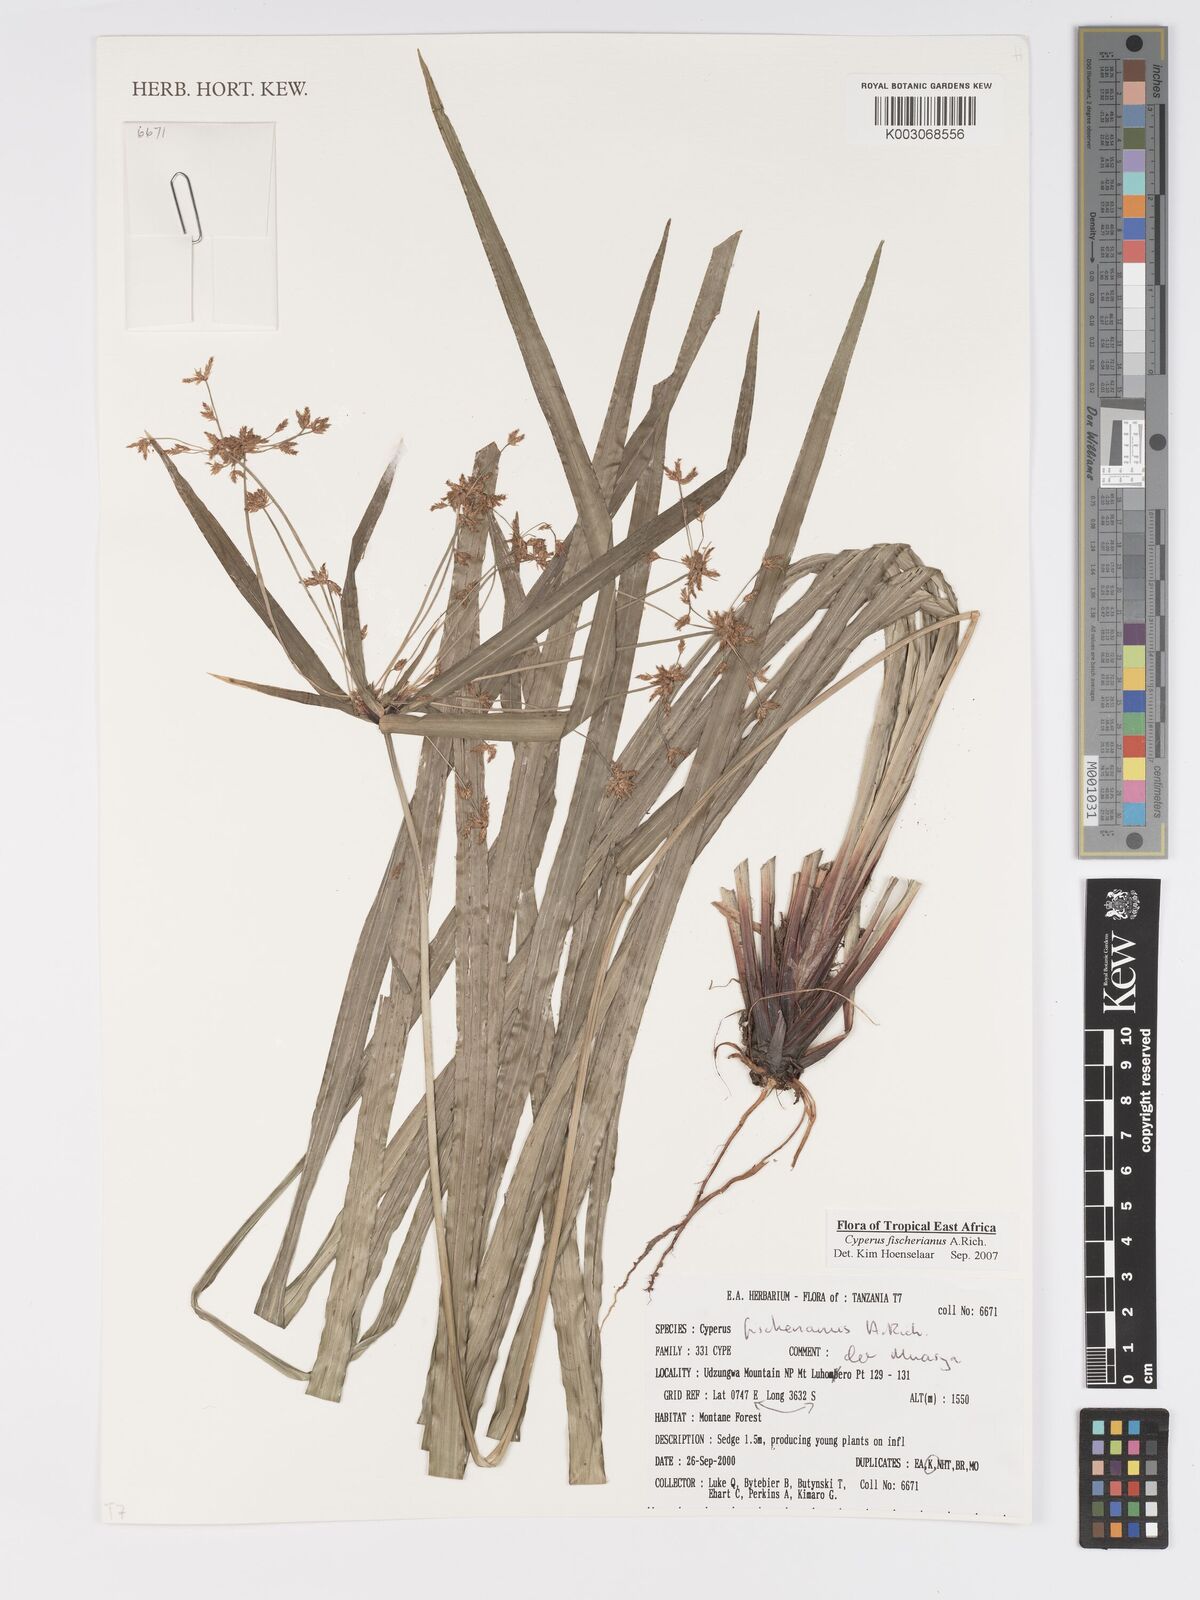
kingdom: Plantae
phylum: Tracheophyta
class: Liliopsida
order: Poales
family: Cyperaceae
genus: Cyperus
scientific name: Cyperus fischerianus
